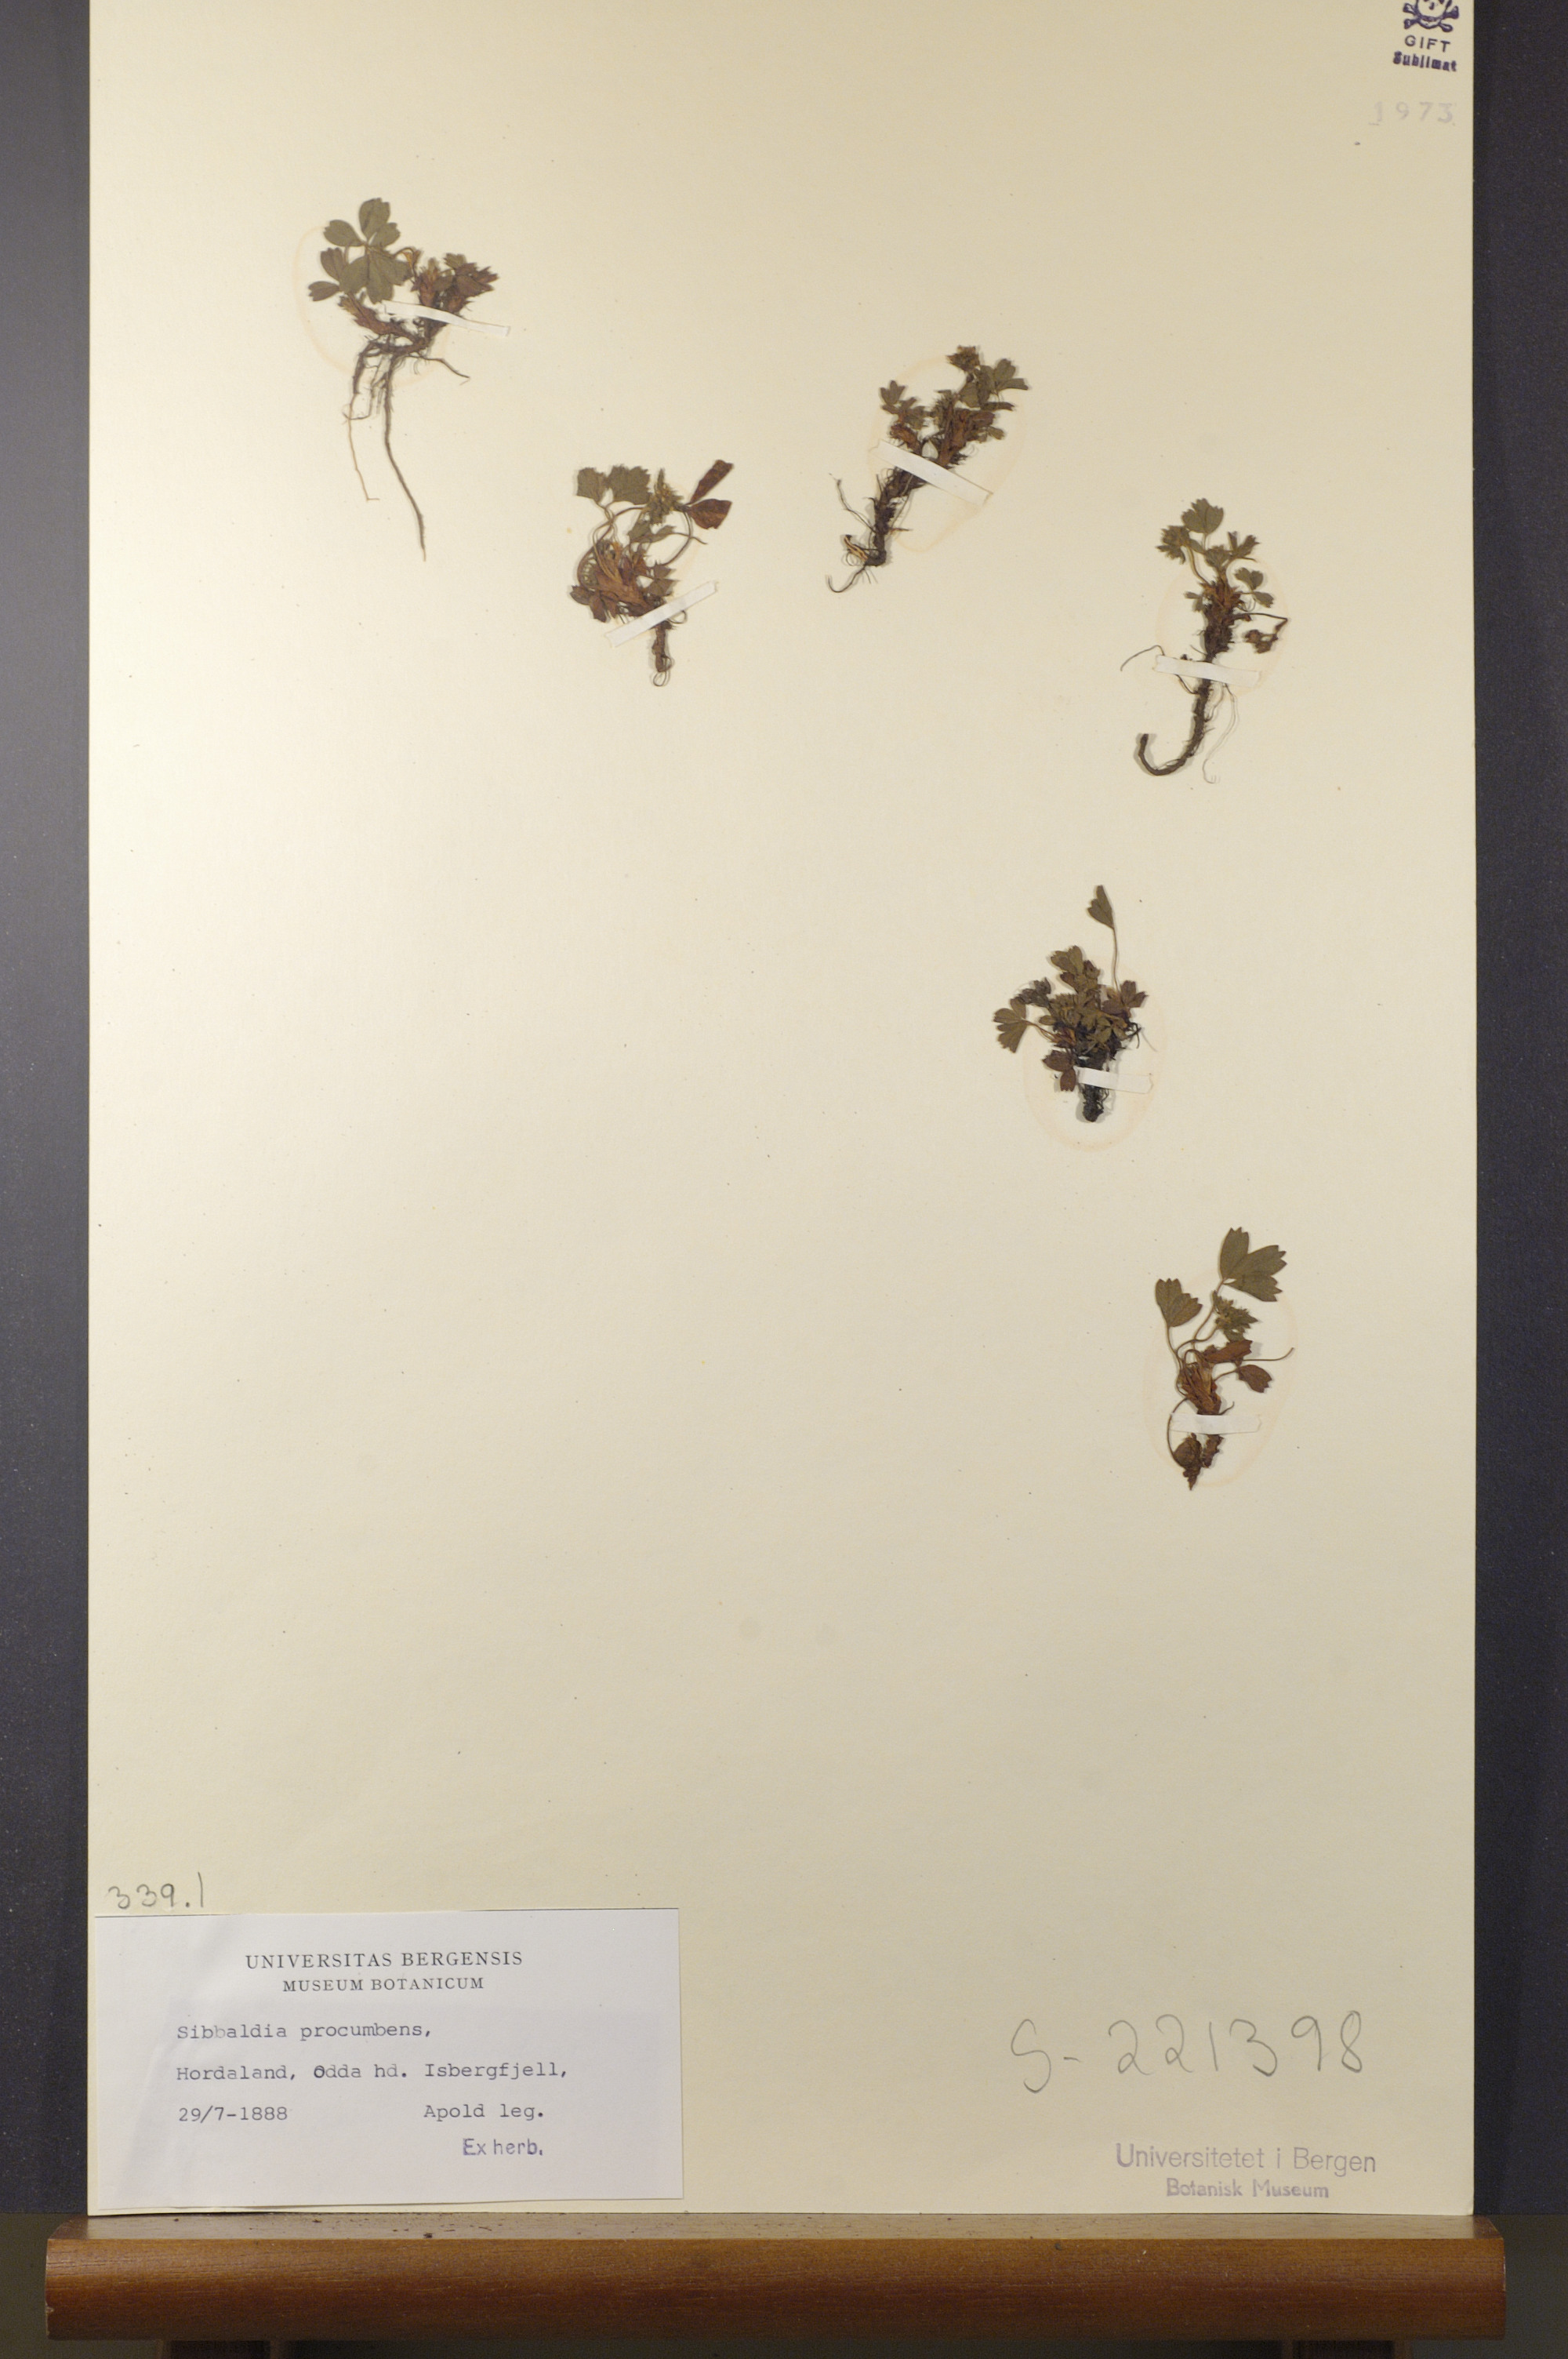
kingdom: Plantae
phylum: Tracheophyta
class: Magnoliopsida
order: Rosales
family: Rosaceae
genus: Sibbaldia
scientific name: Sibbaldia procumbens
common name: Creeping sibbaldia
